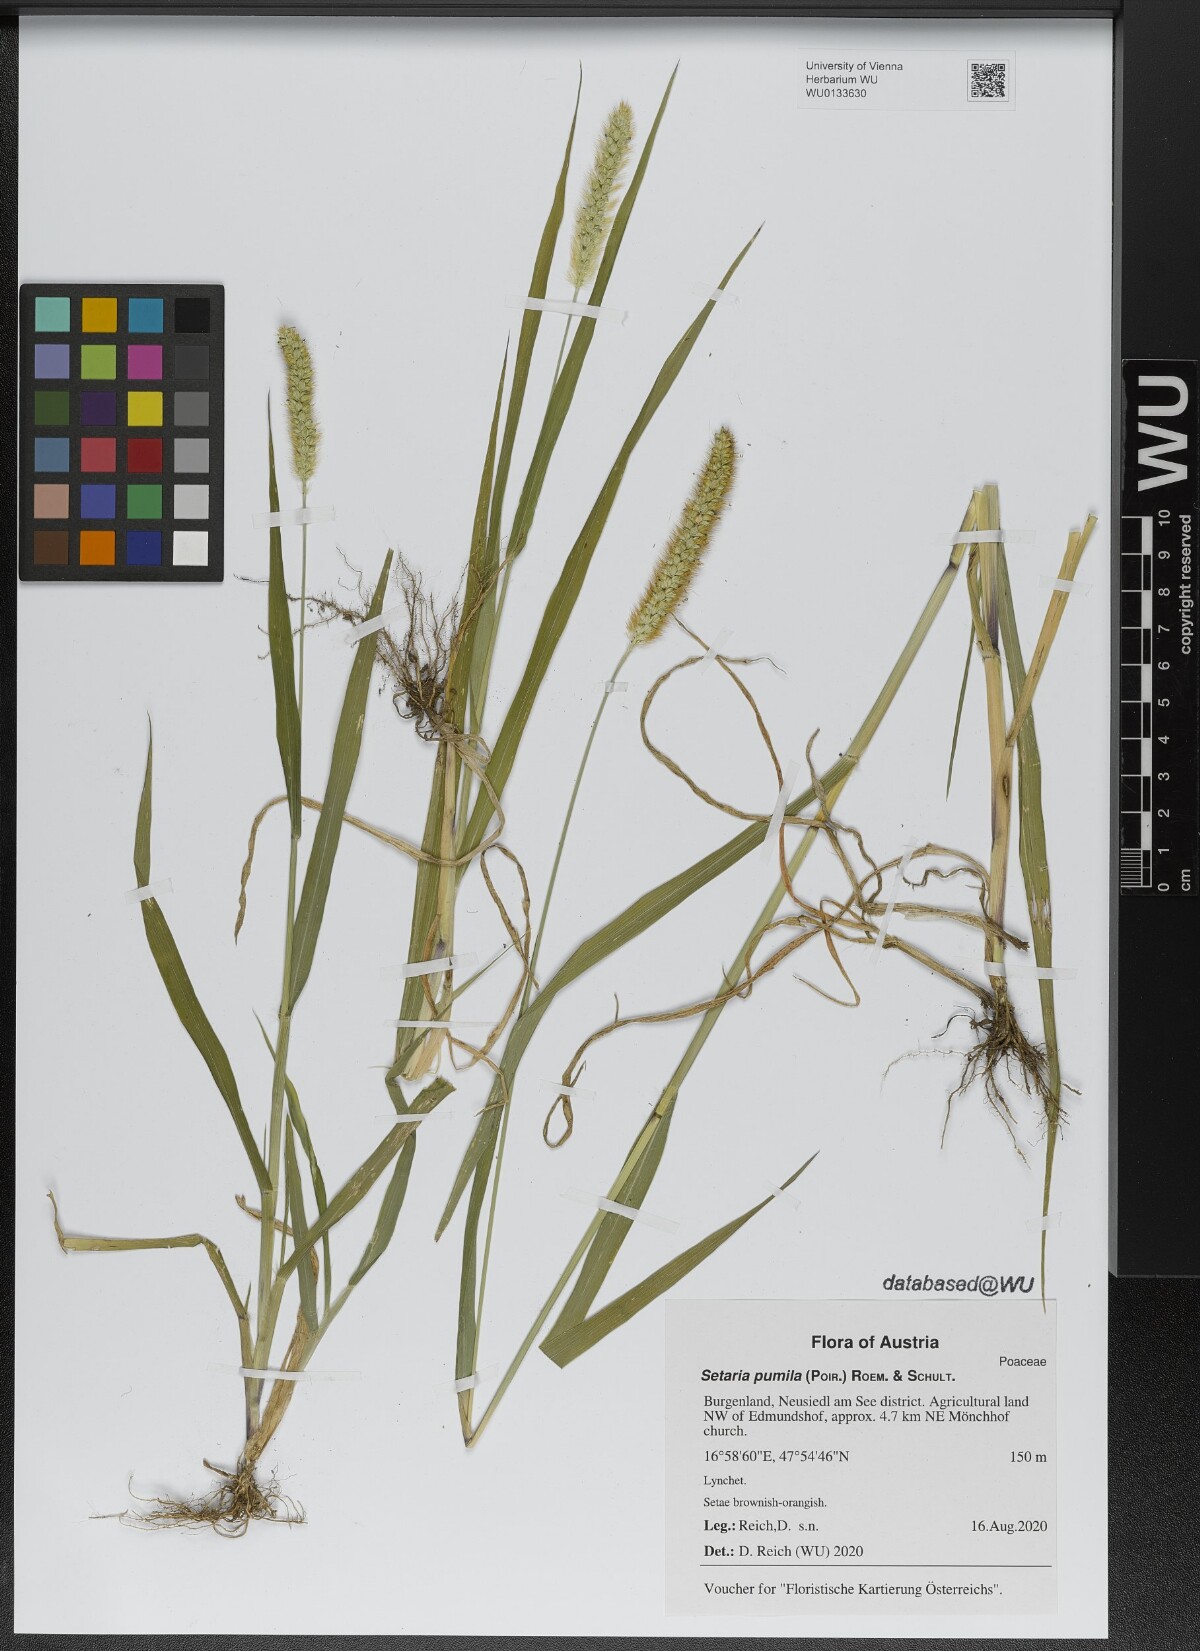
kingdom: Plantae
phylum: Tracheophyta
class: Liliopsida
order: Poales
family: Poaceae
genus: Setaria
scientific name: Setaria pumila
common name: Yellow bristle-grass
